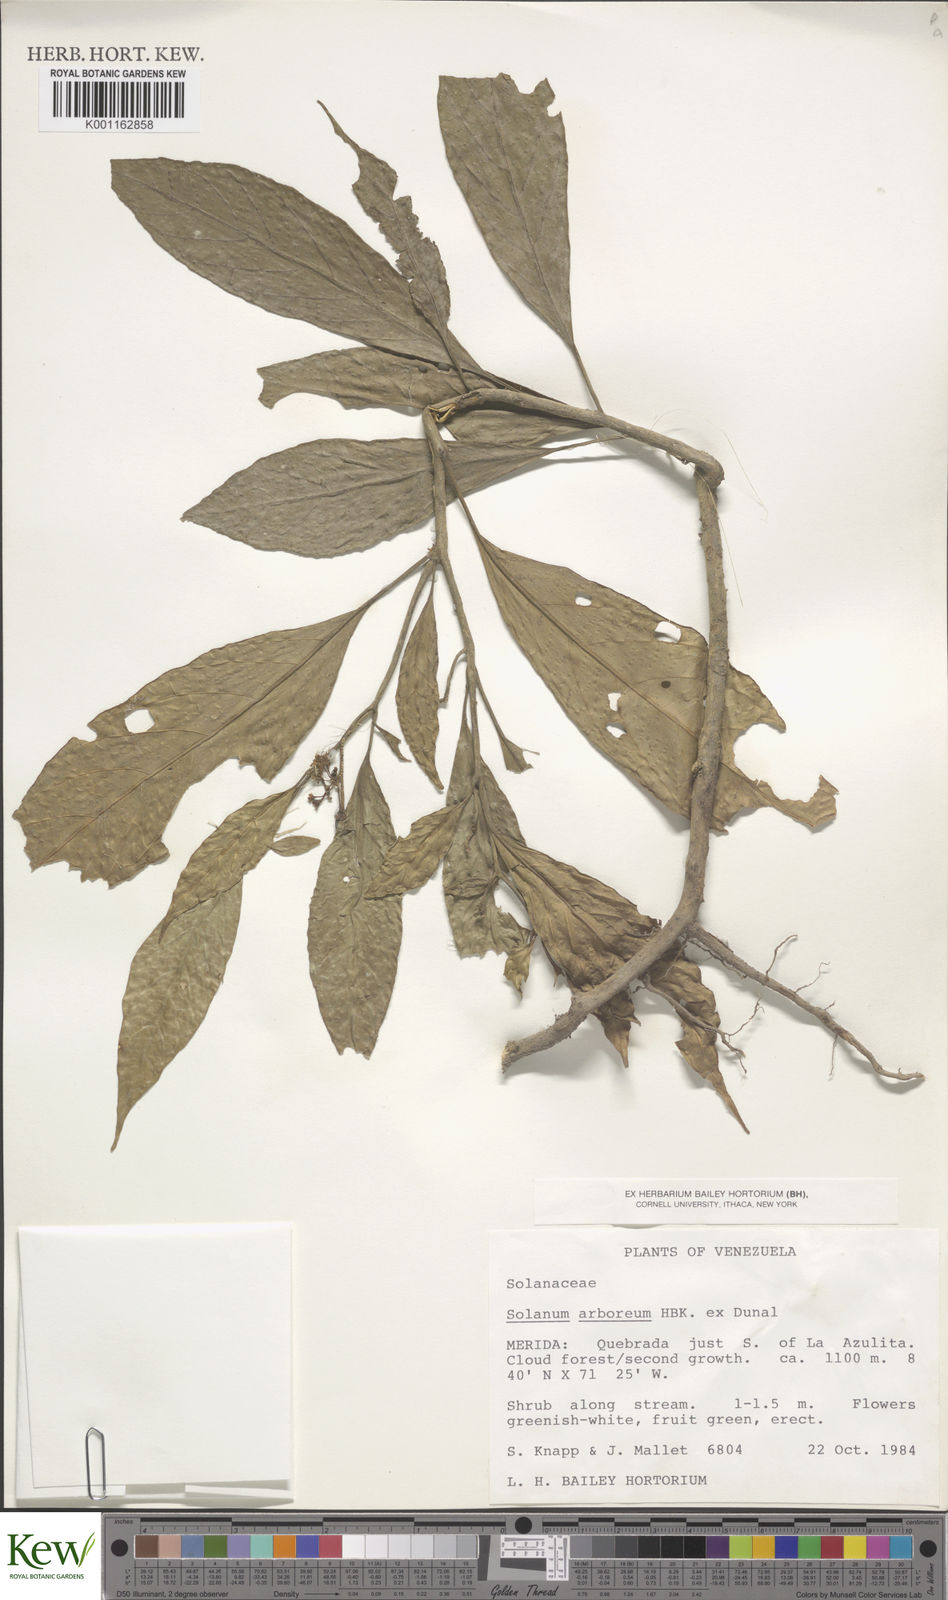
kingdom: Plantae
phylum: Tracheophyta
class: Magnoliopsida
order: Solanales
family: Solanaceae
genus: Solanum
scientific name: Solanum arboreum
